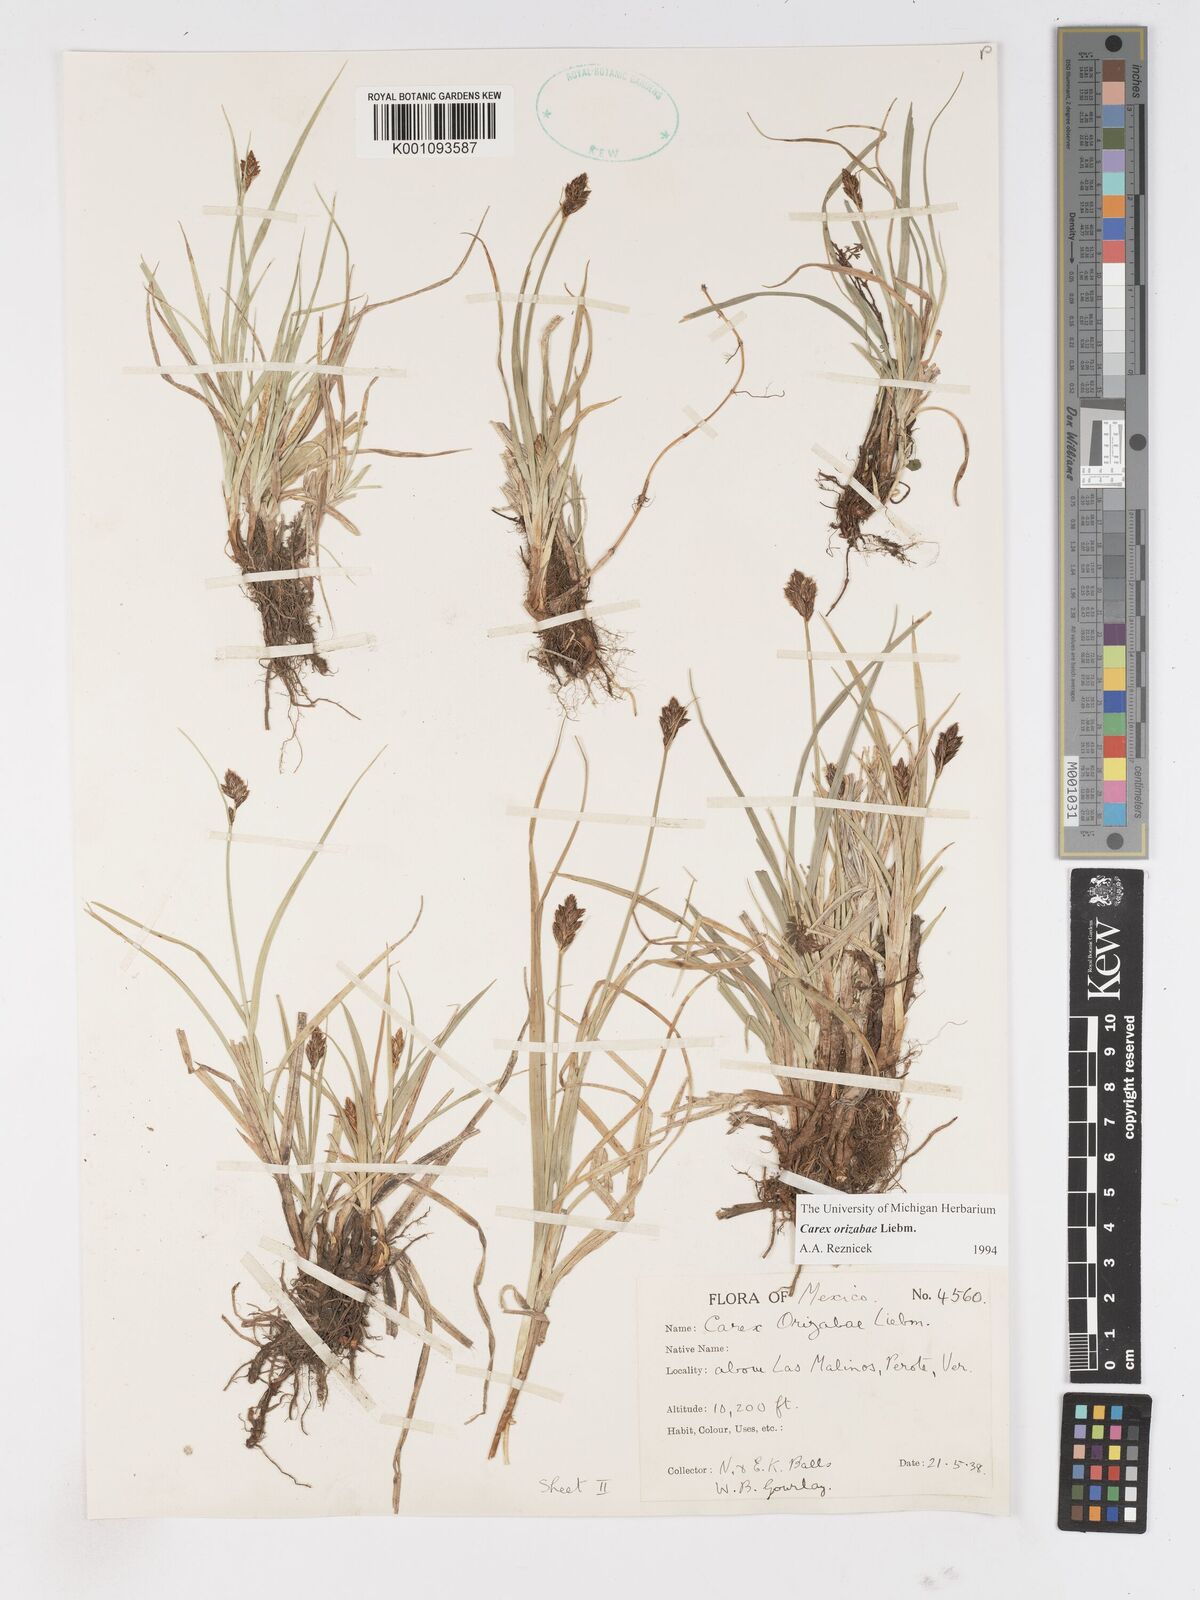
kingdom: Plantae
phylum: Tracheophyta
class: Liliopsida
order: Poales
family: Cyperaceae
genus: Carex
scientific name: Carex orizabae
